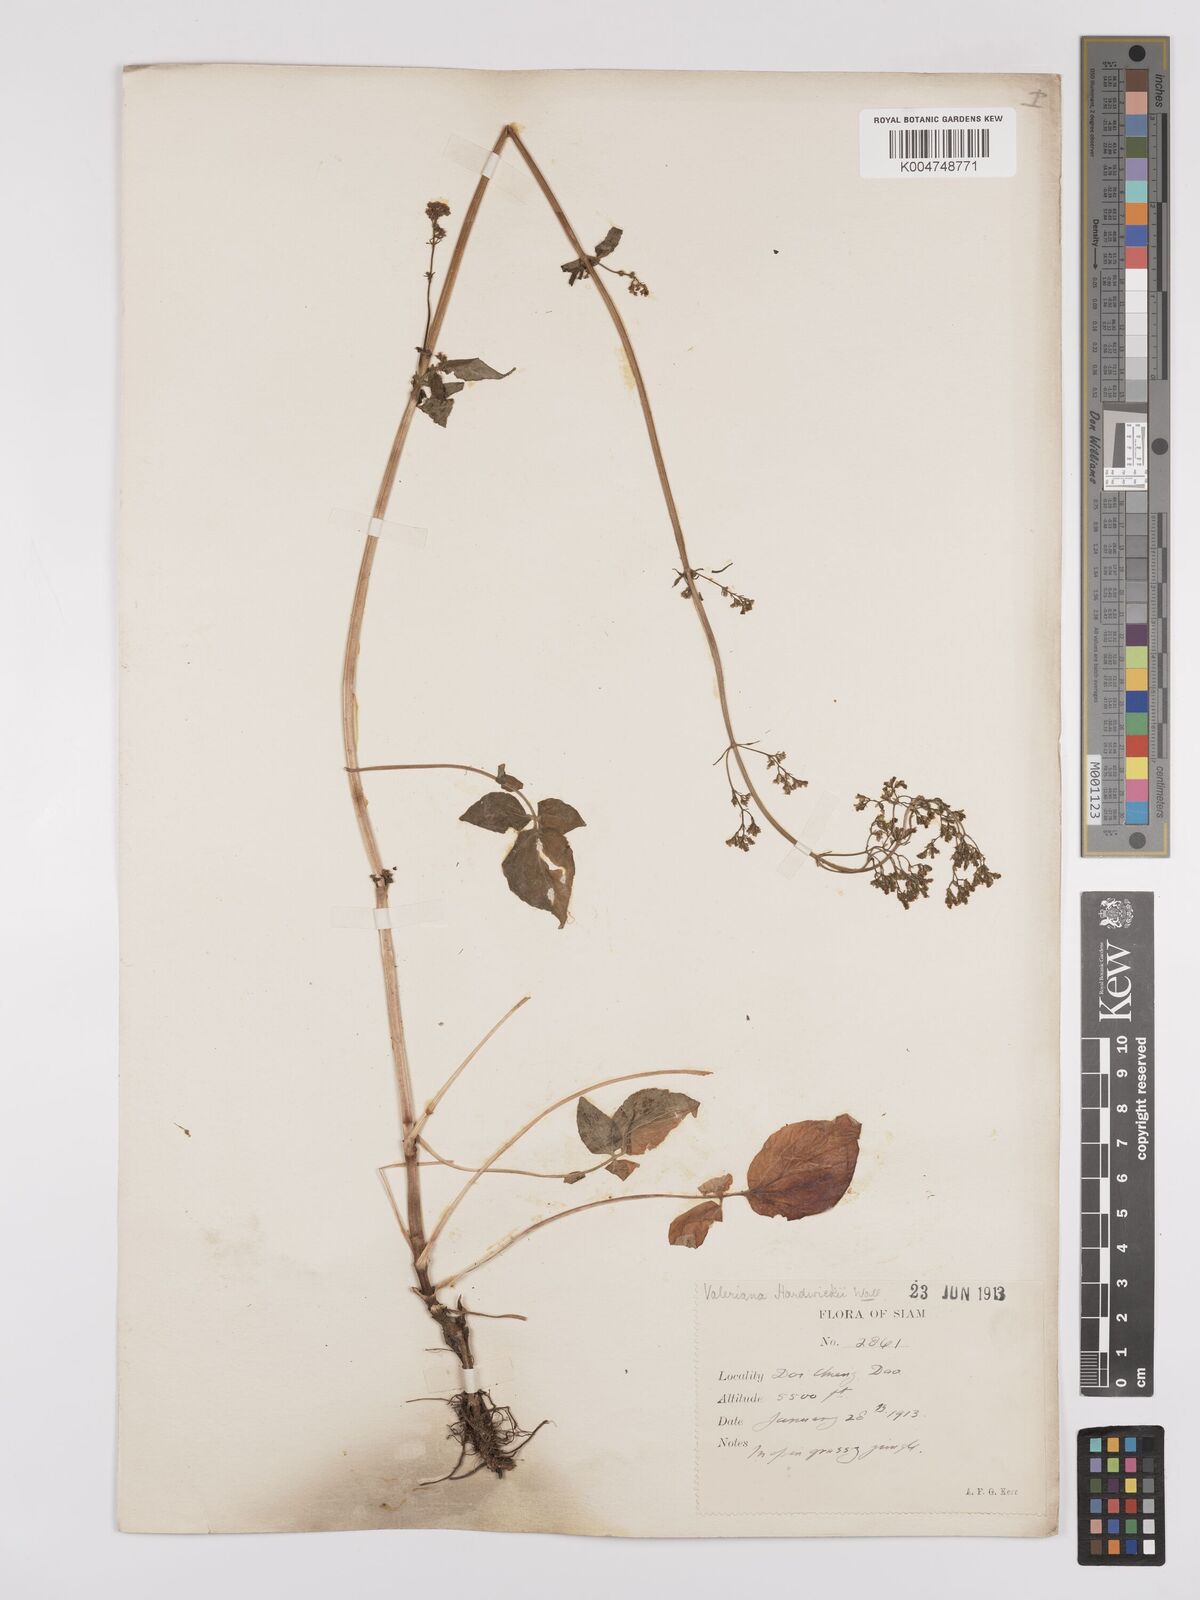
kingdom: Plantae
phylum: Tracheophyta
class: Magnoliopsida
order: Dipsacales
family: Caprifoliaceae
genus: Valeriana
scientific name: Valeriana hardwickei
